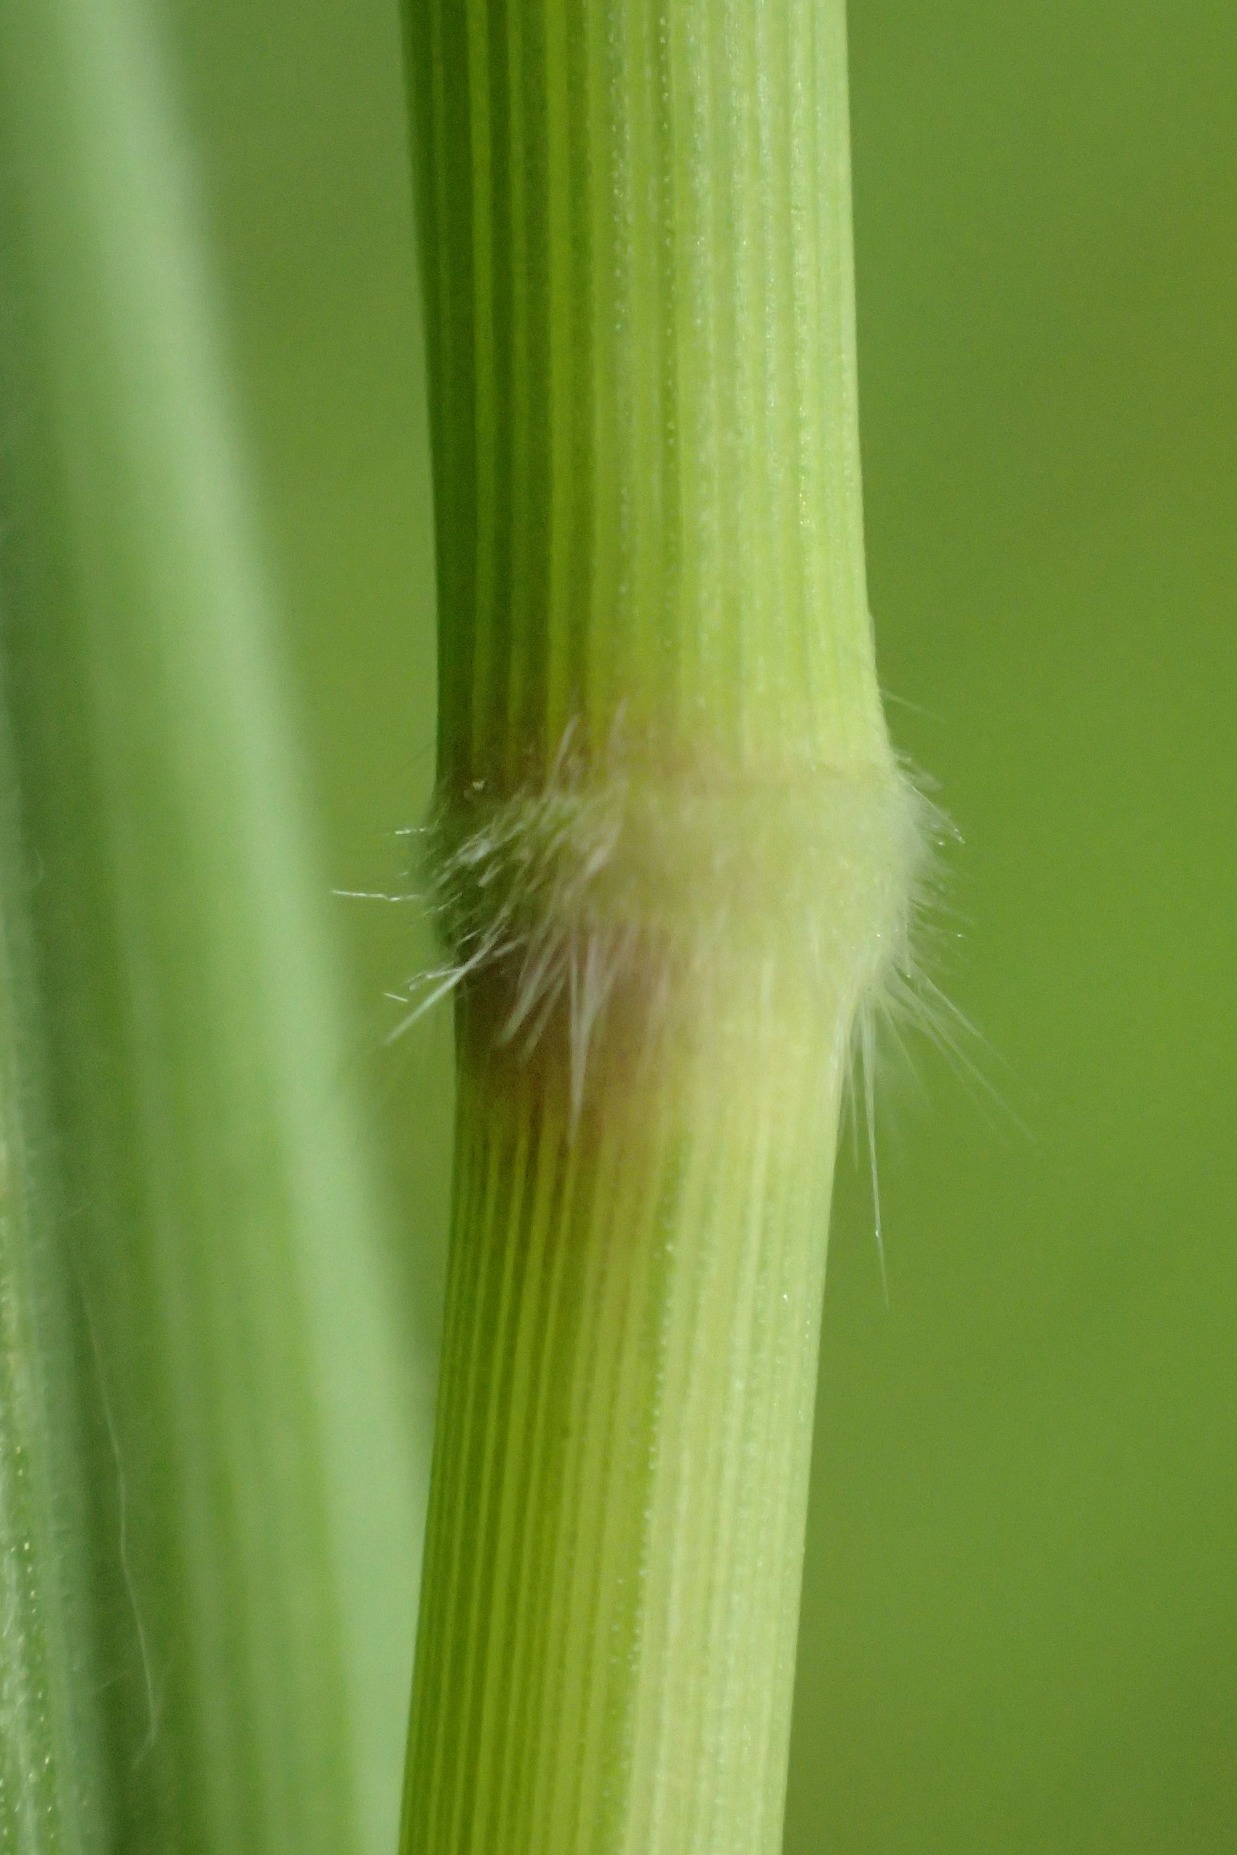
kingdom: Plantae
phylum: Tracheophyta
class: Liliopsida
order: Poales
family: Poaceae
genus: Holcus
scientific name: Holcus mollis
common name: Krybende hestegræs
